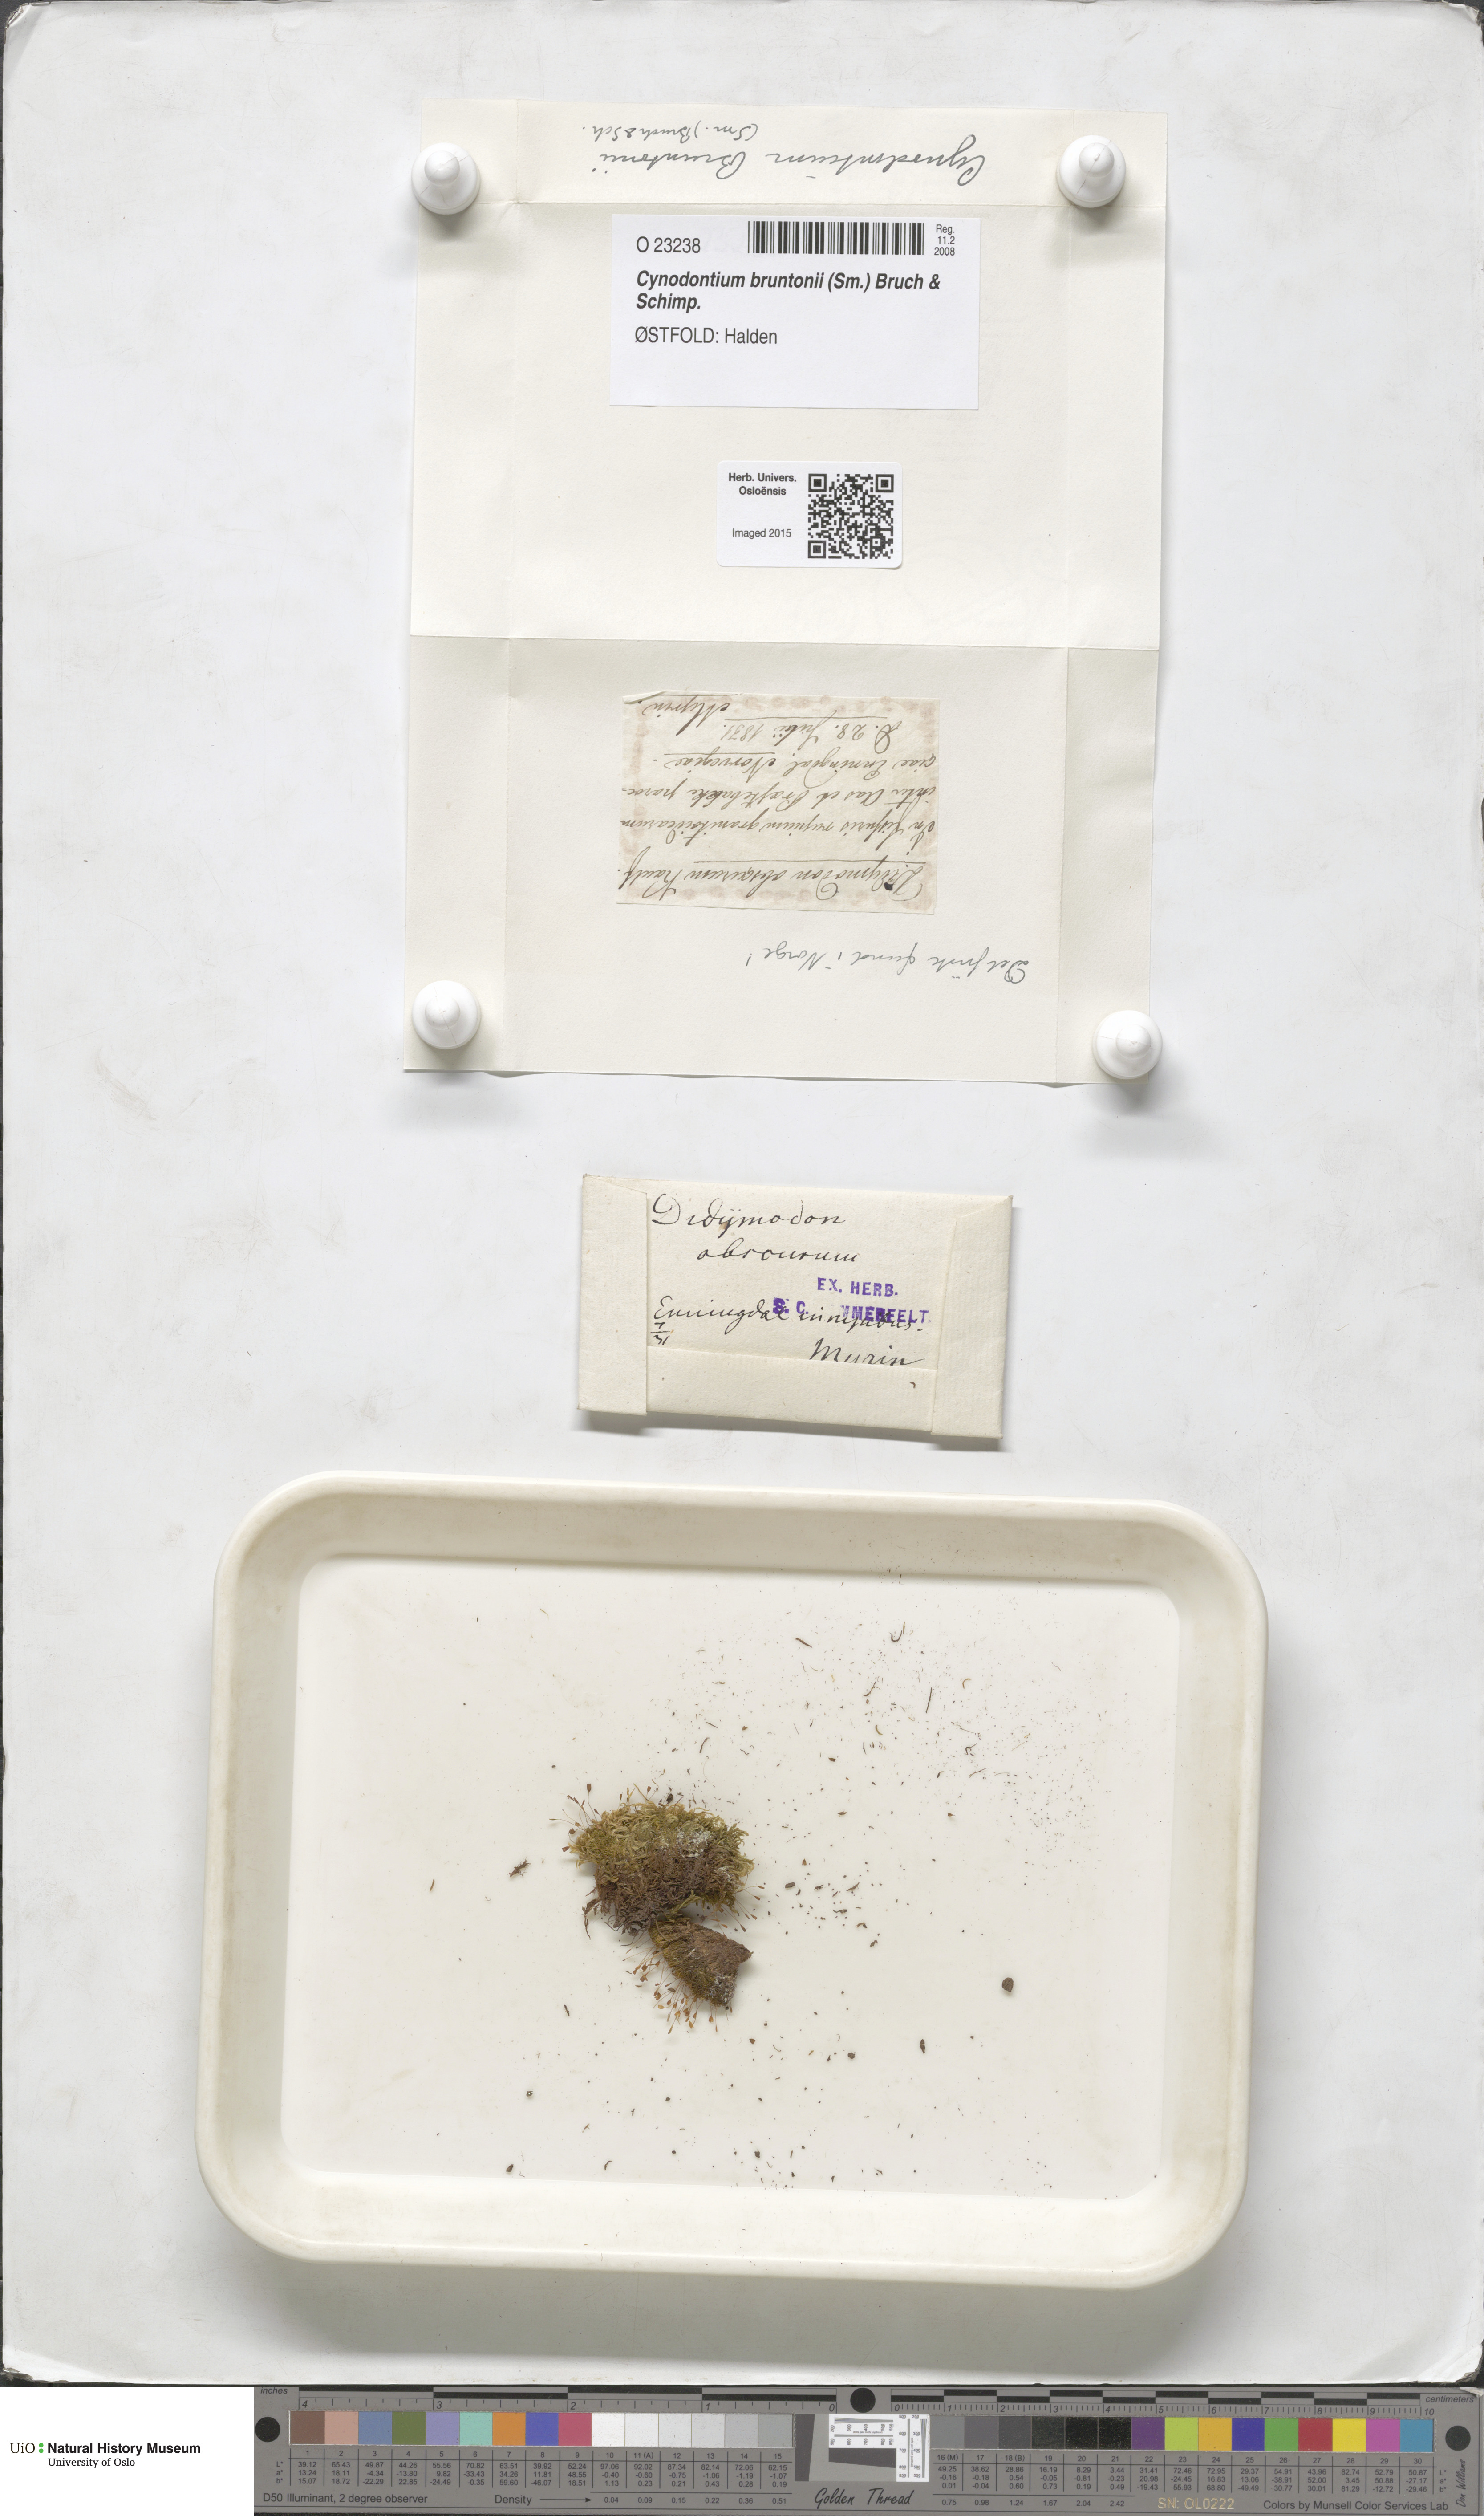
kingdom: Plantae
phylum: Bryophyta
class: Bryopsida
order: Dicranales
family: Rhabdoweisiaceae
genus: Cynodontium
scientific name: Cynodontium bruntonii
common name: Brunton's dog-tooth
